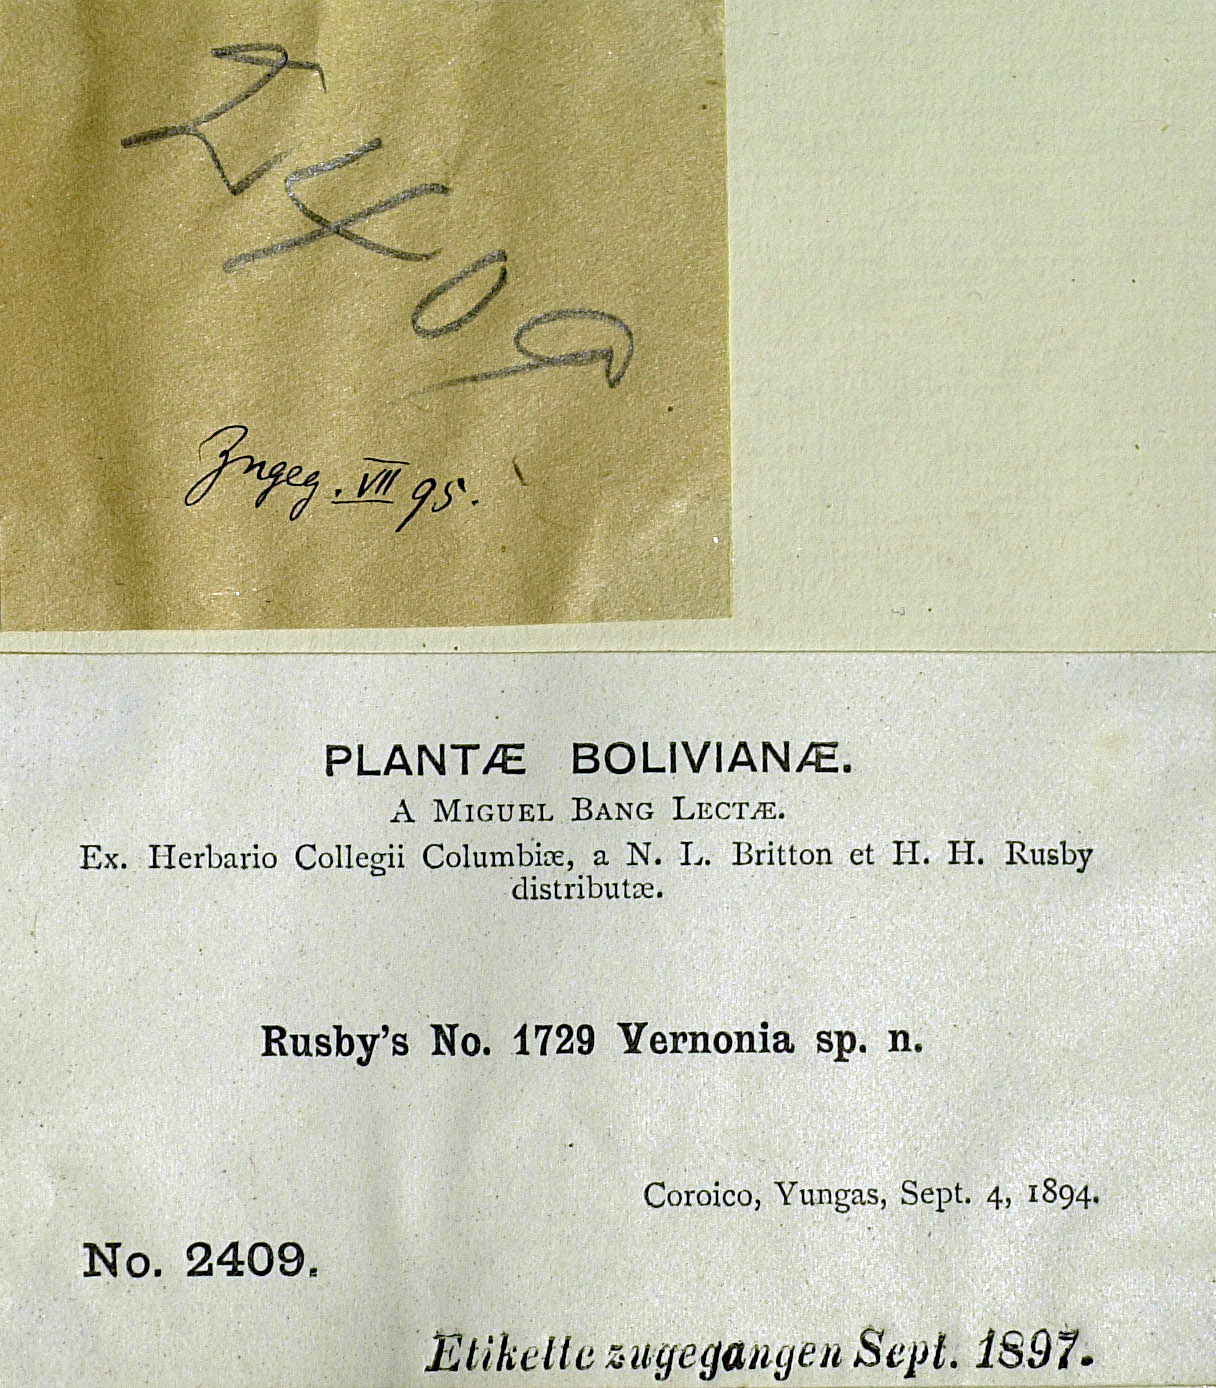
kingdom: Plantae
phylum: Tracheophyta
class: Magnoliopsida
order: Asterales
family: Asteraceae
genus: Critoniopsis
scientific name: Critoniopsis boliviana
